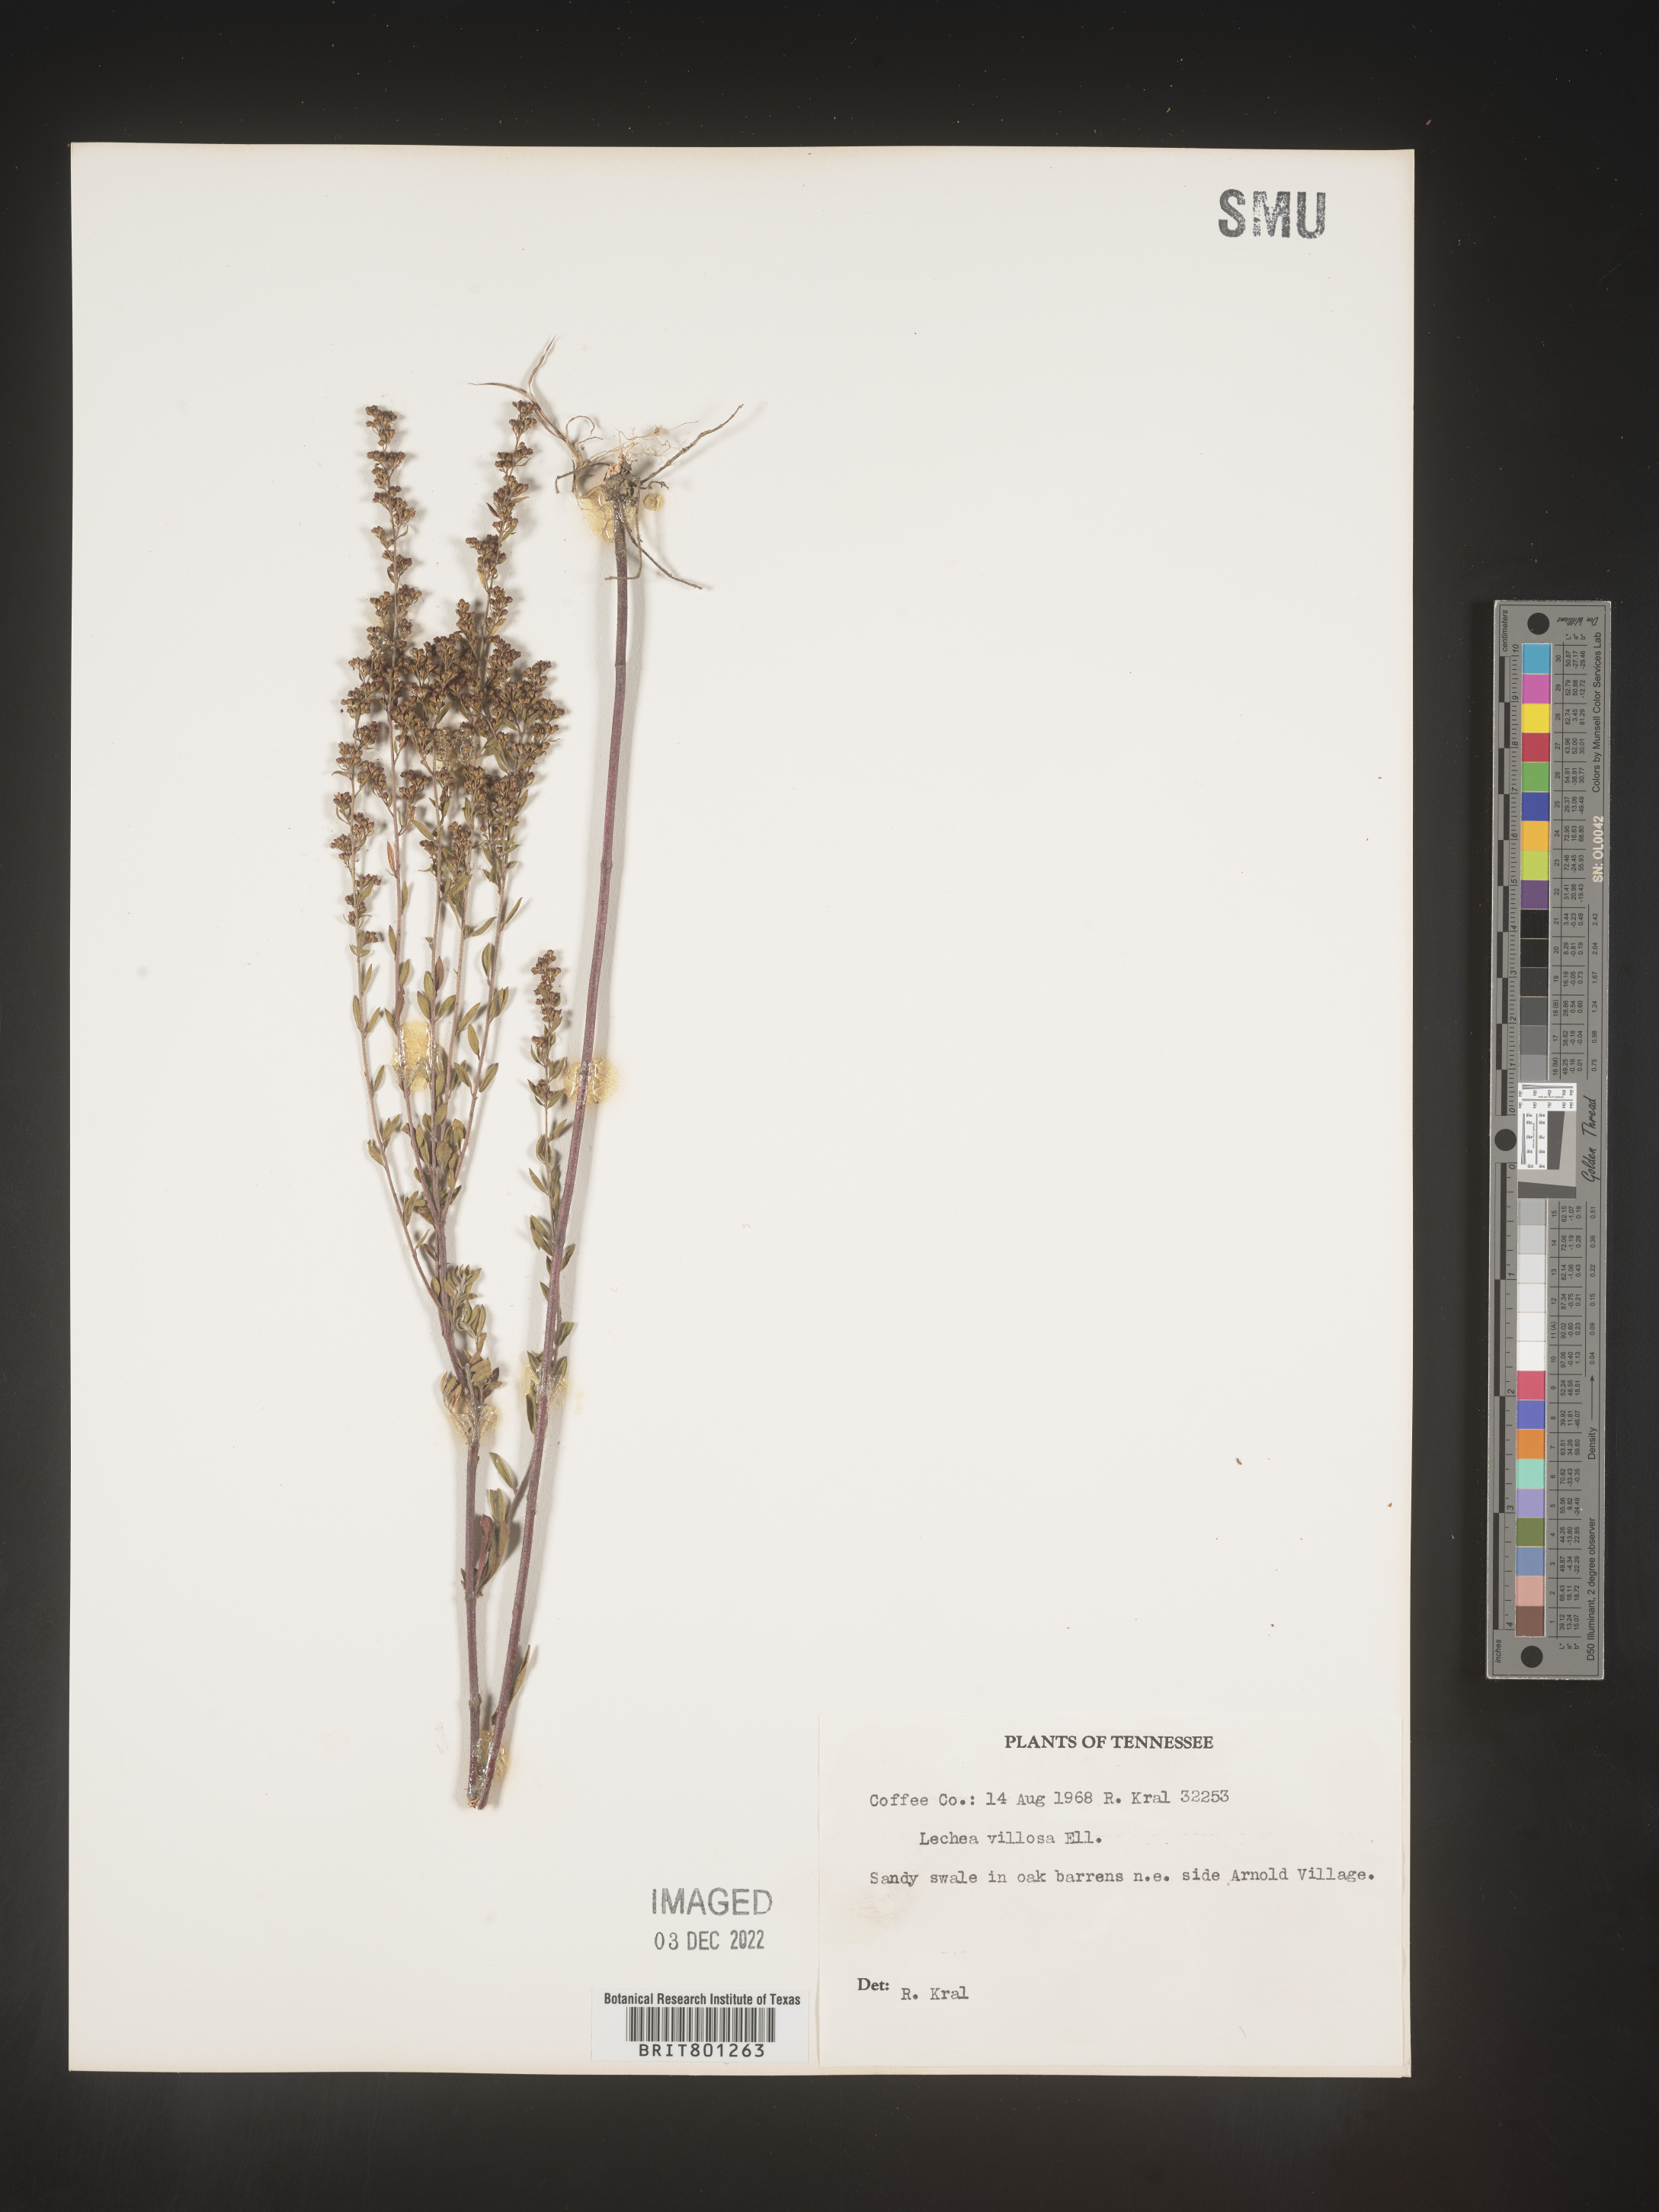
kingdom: Plantae
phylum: Tracheophyta
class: Magnoliopsida
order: Malvales
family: Cistaceae
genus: Lechea
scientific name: Lechea mucronata
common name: Hairy pinweed
